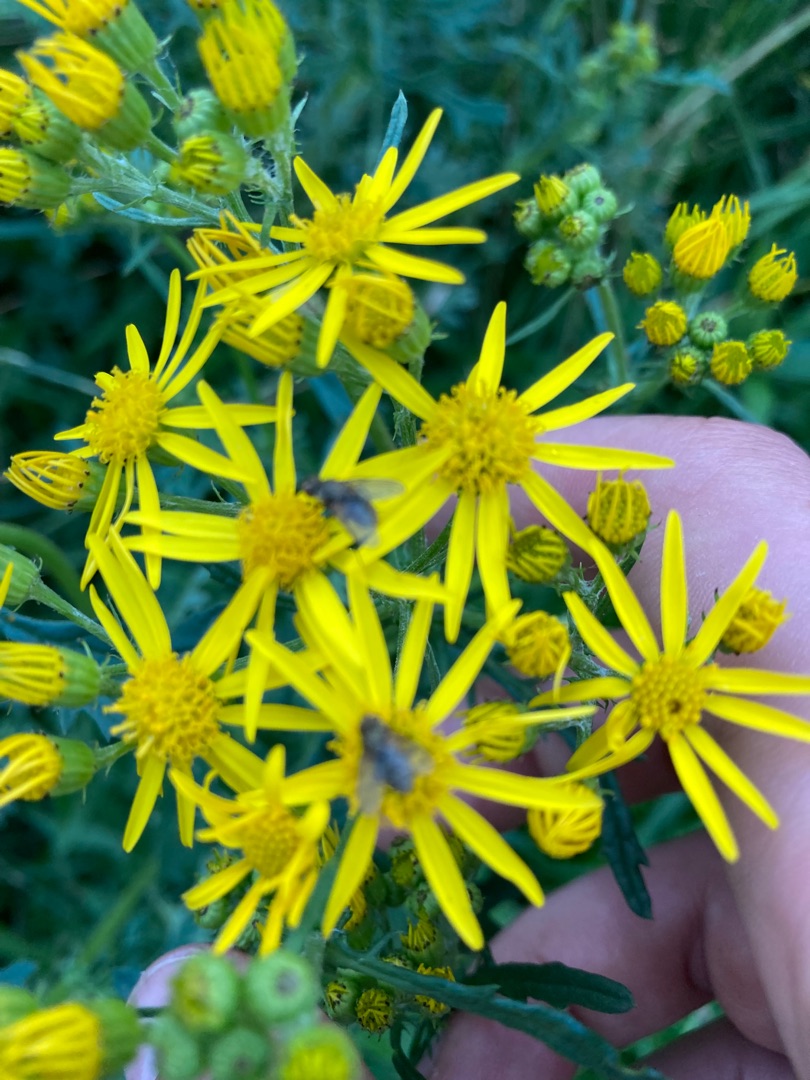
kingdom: Plantae
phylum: Tracheophyta
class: Magnoliopsida
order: Asterales
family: Asteraceae
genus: Jacobaea
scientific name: Jacobaea vulgaris
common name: Eng-brandbæger
